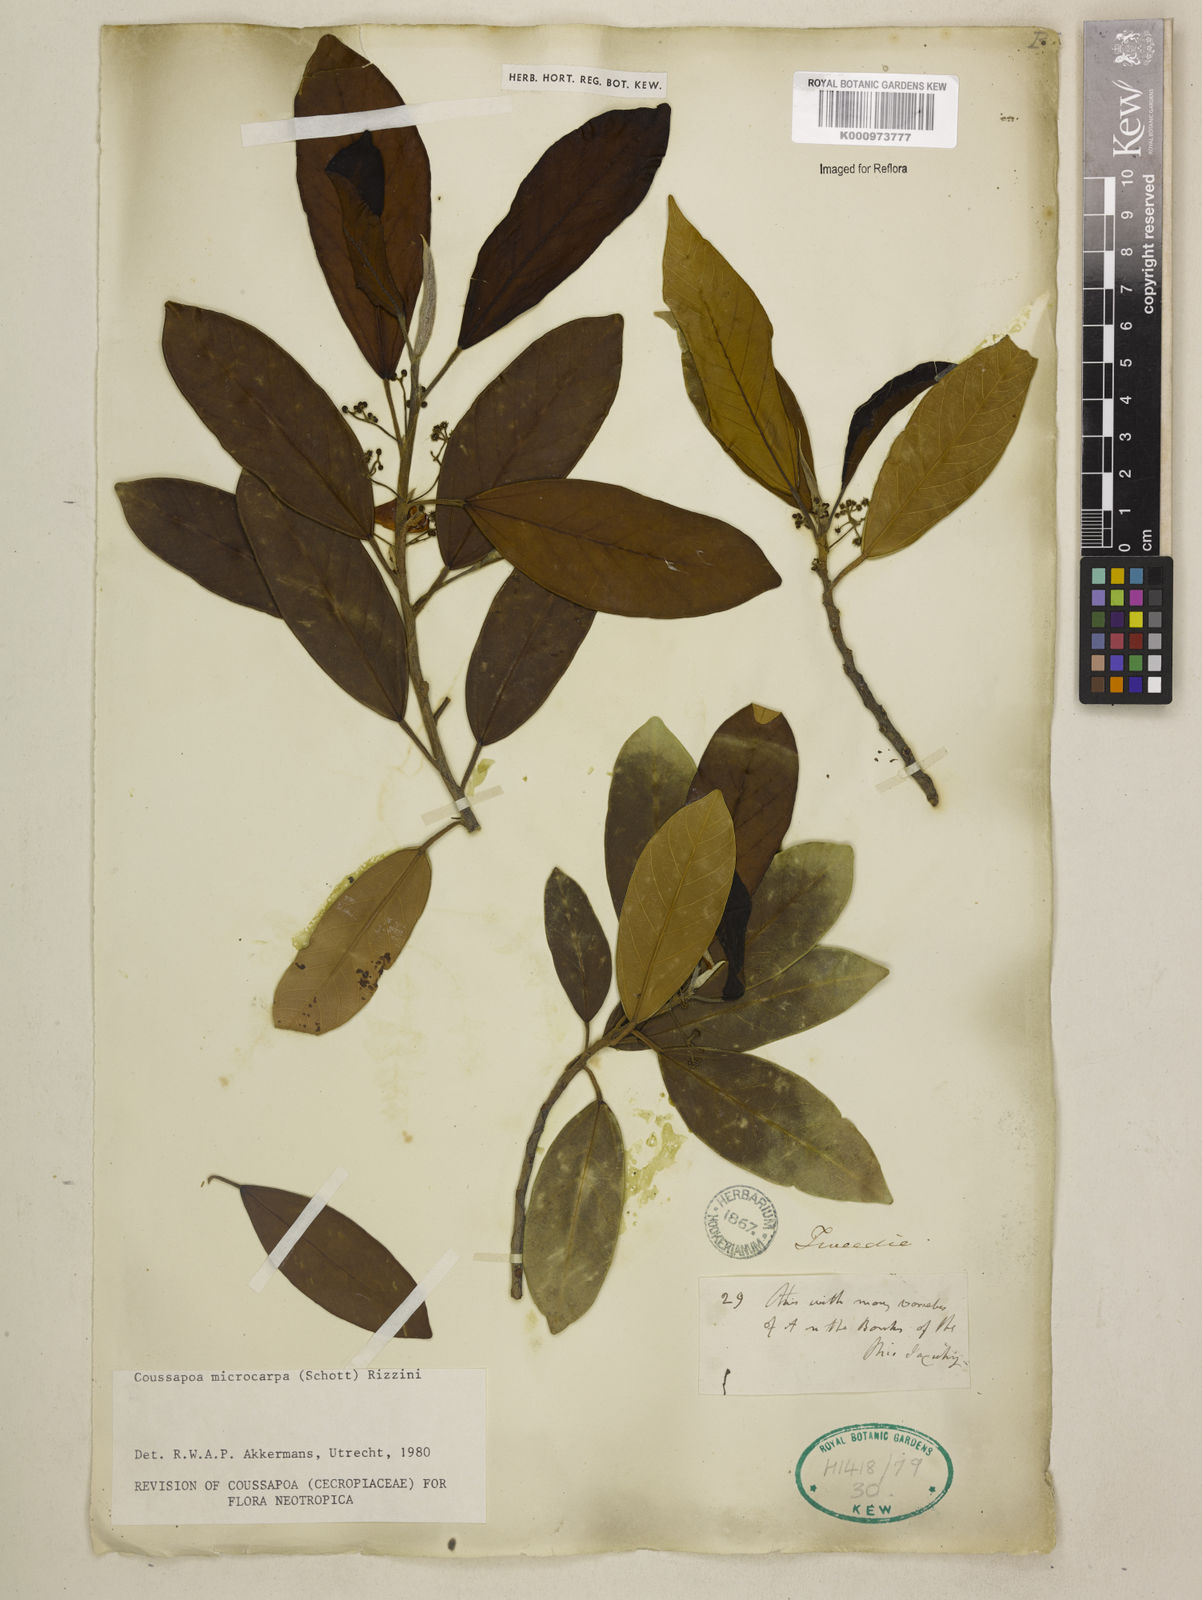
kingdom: Plantae
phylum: Tracheophyta
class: Magnoliopsida
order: Rosales
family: Urticaceae
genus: Coussapoa
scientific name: Coussapoa microcarpa
